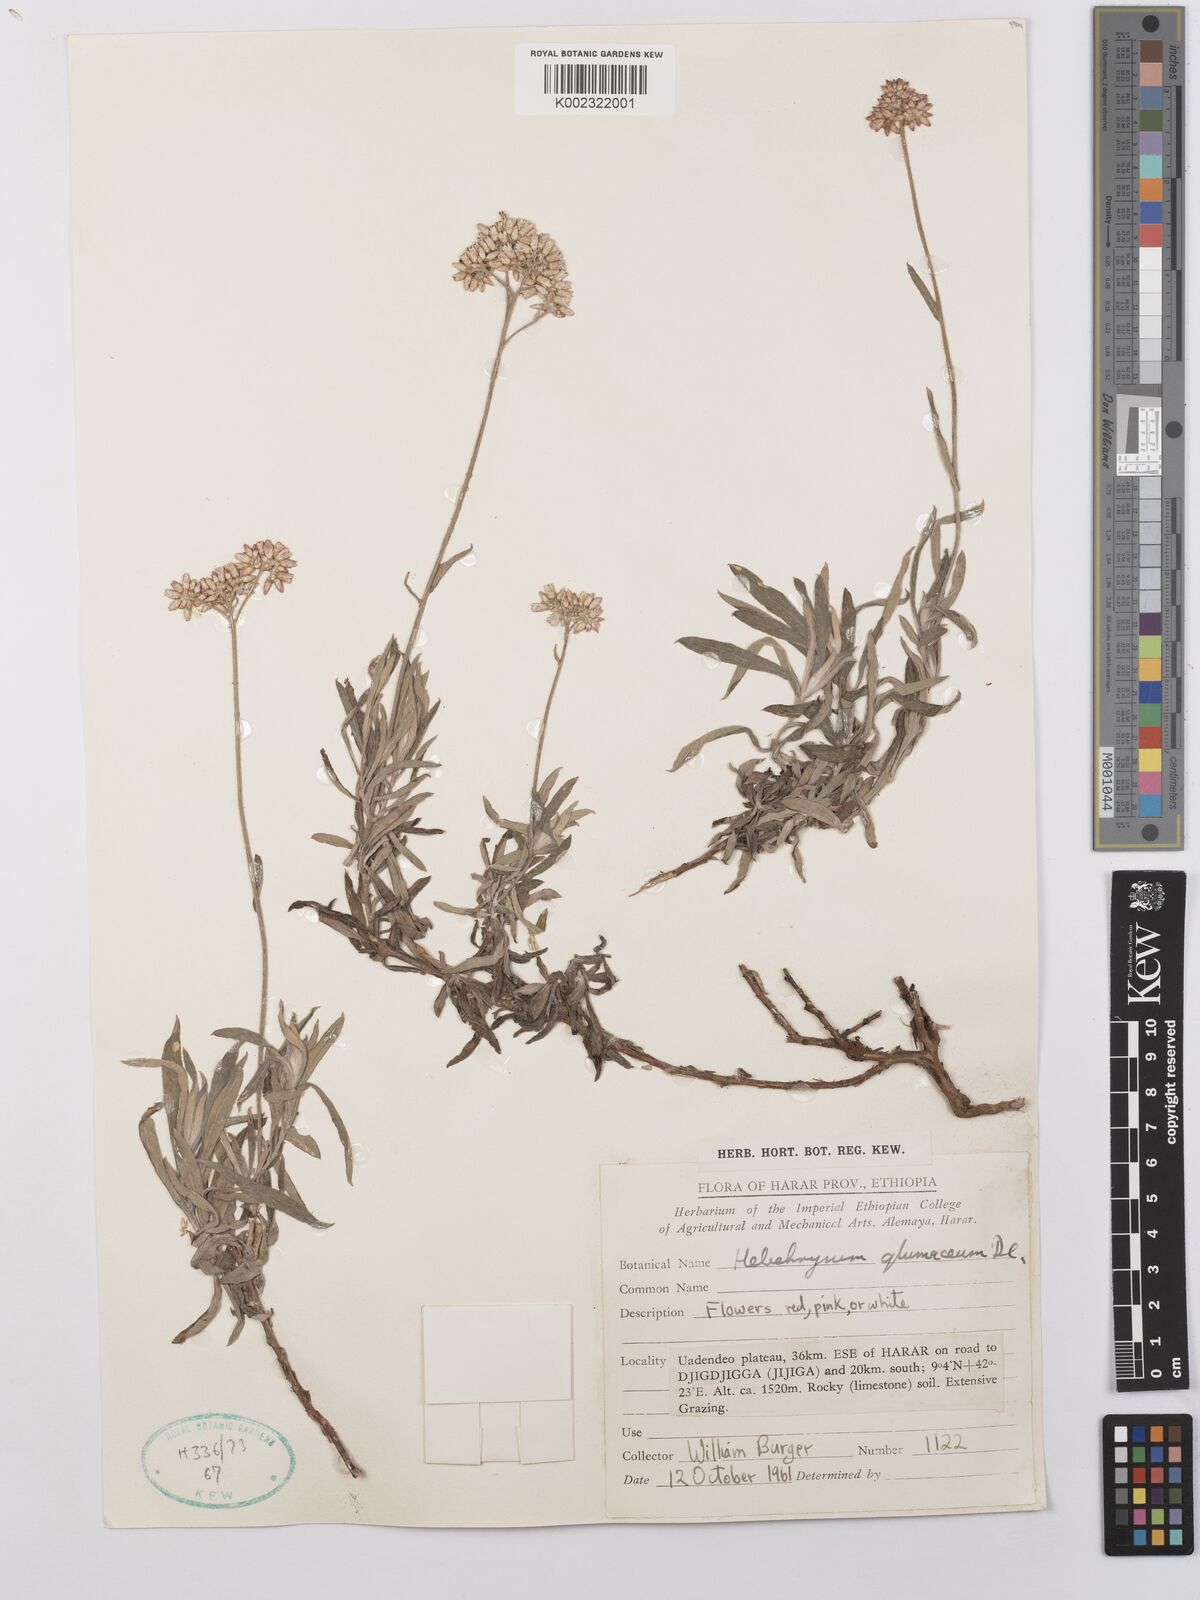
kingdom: Plantae
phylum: Tracheophyta
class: Magnoliopsida
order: Asterales
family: Asteraceae
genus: Helichrysum
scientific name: Helichrysum glumaceum
